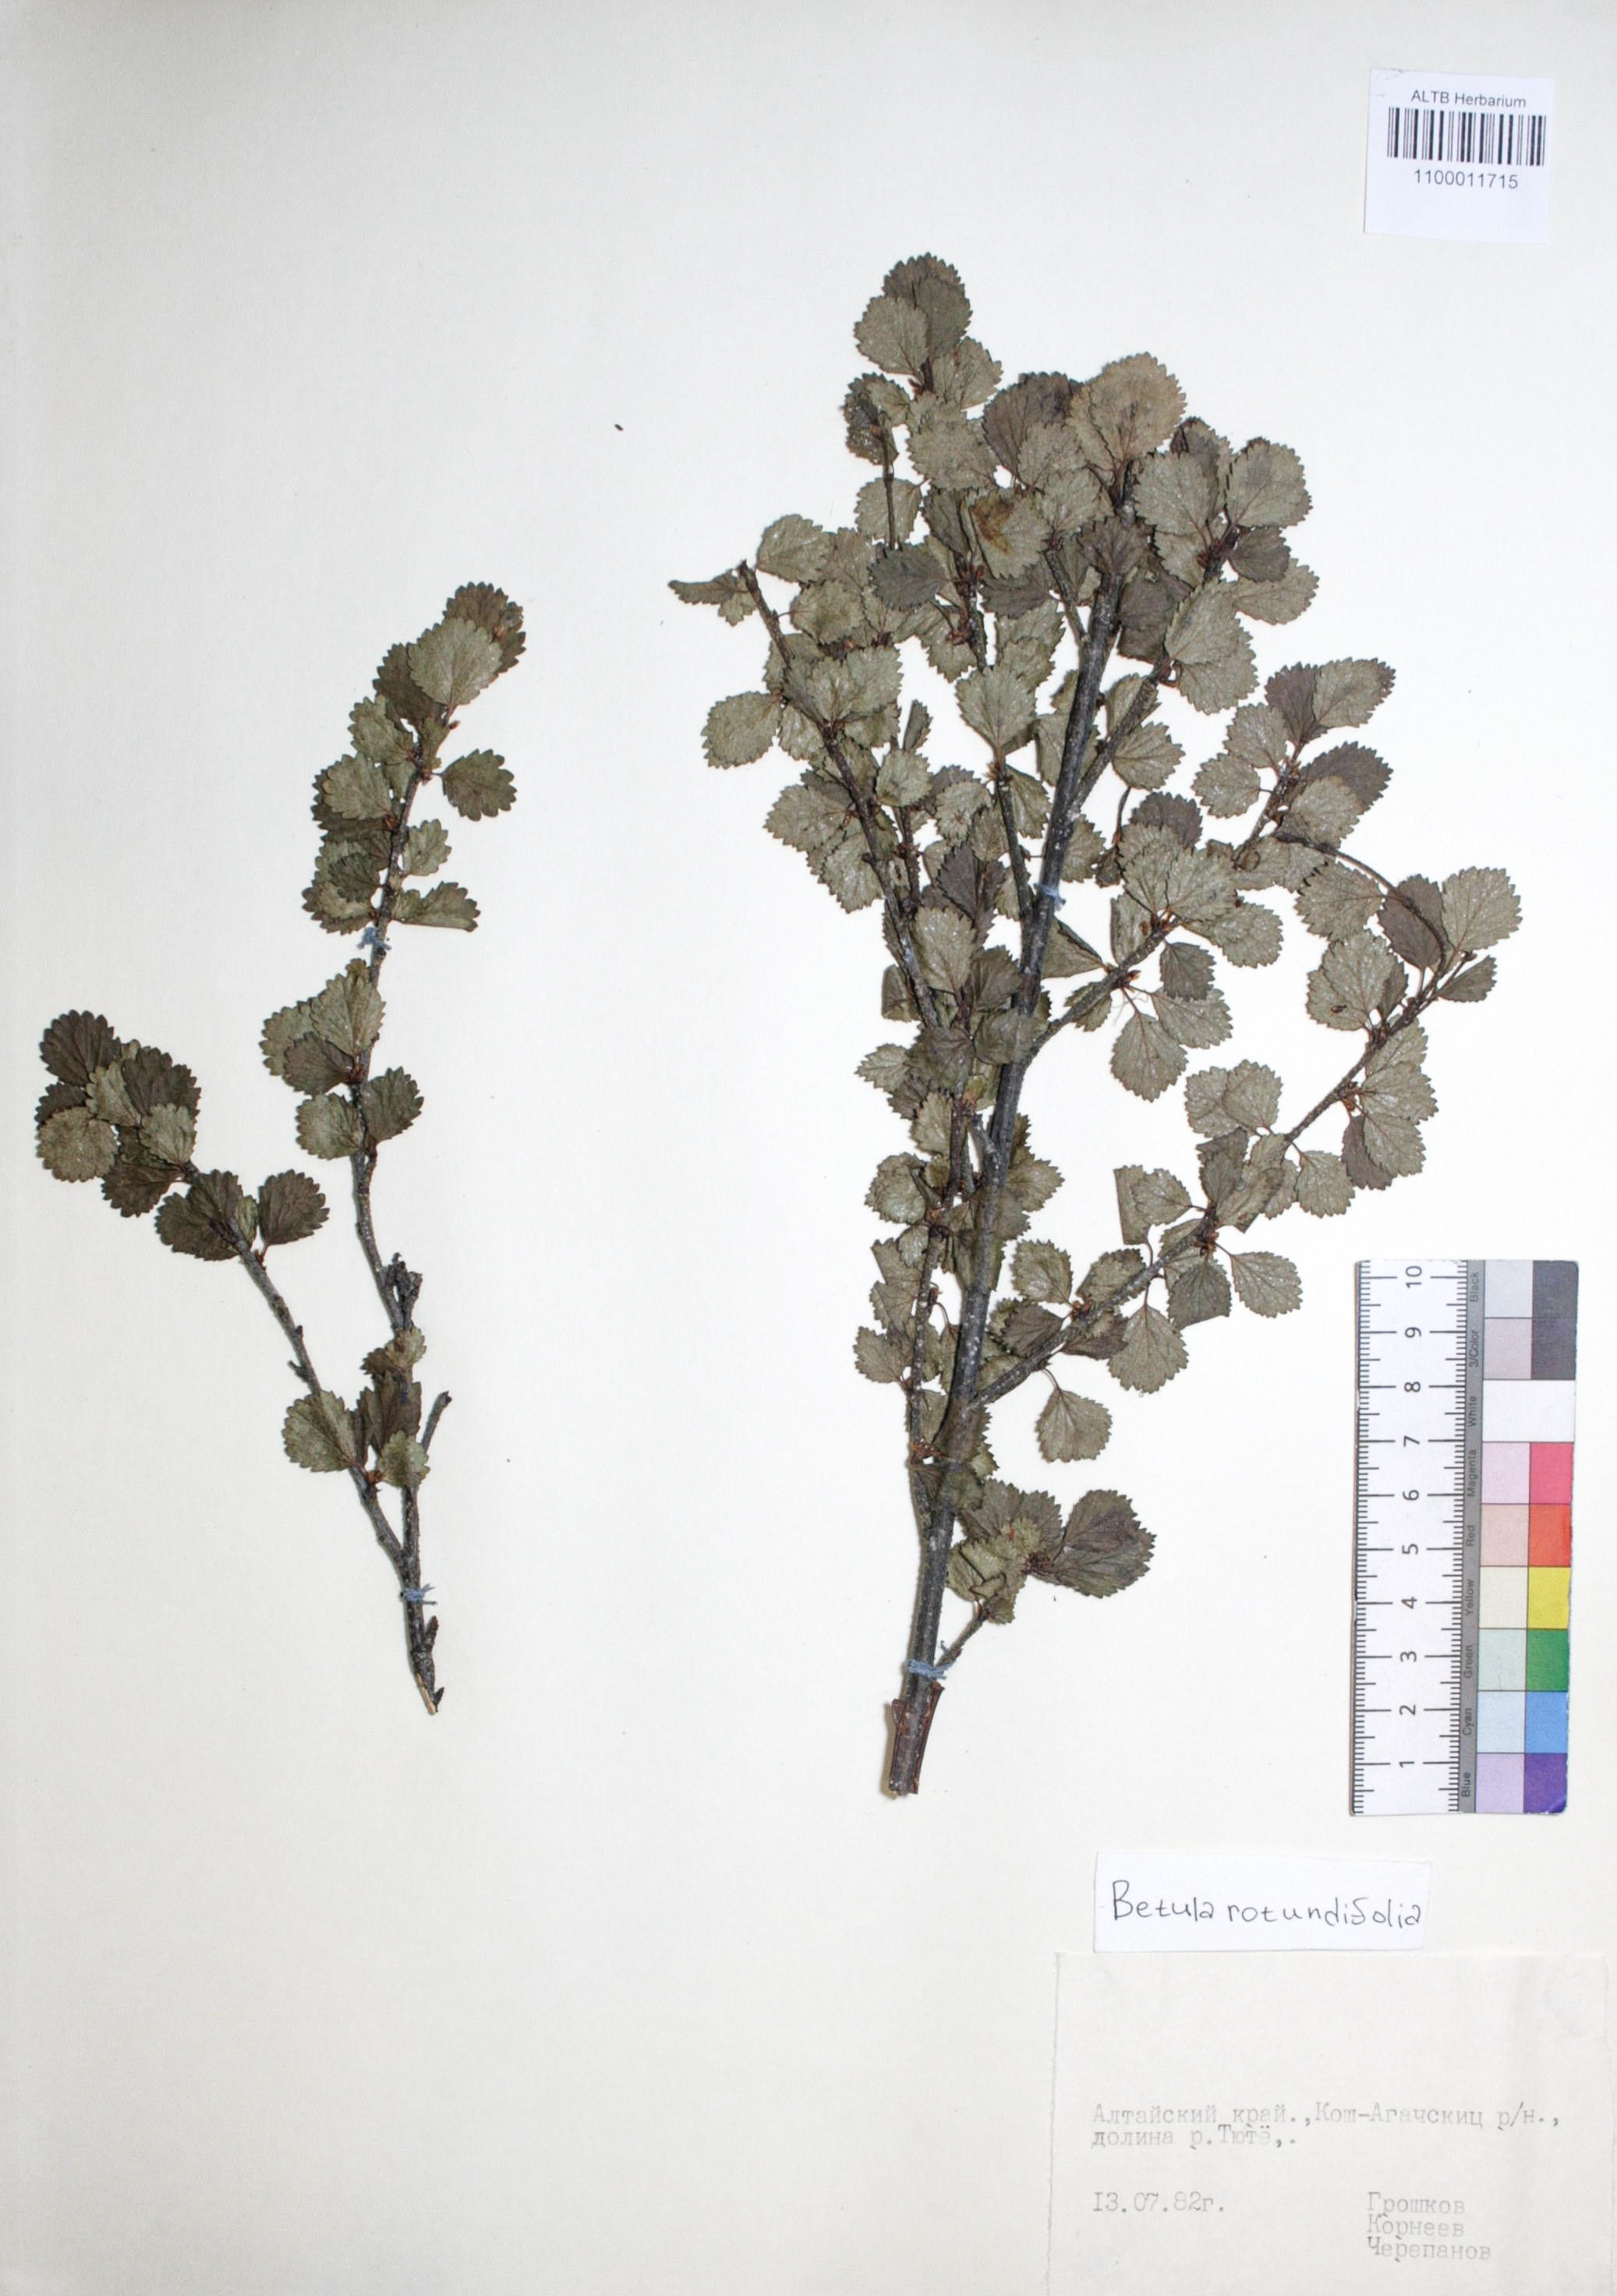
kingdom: Plantae
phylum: Tracheophyta
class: Magnoliopsida
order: Fagales
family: Betulaceae
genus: Betula
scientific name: Betula glandulosa
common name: Dwarf birch
